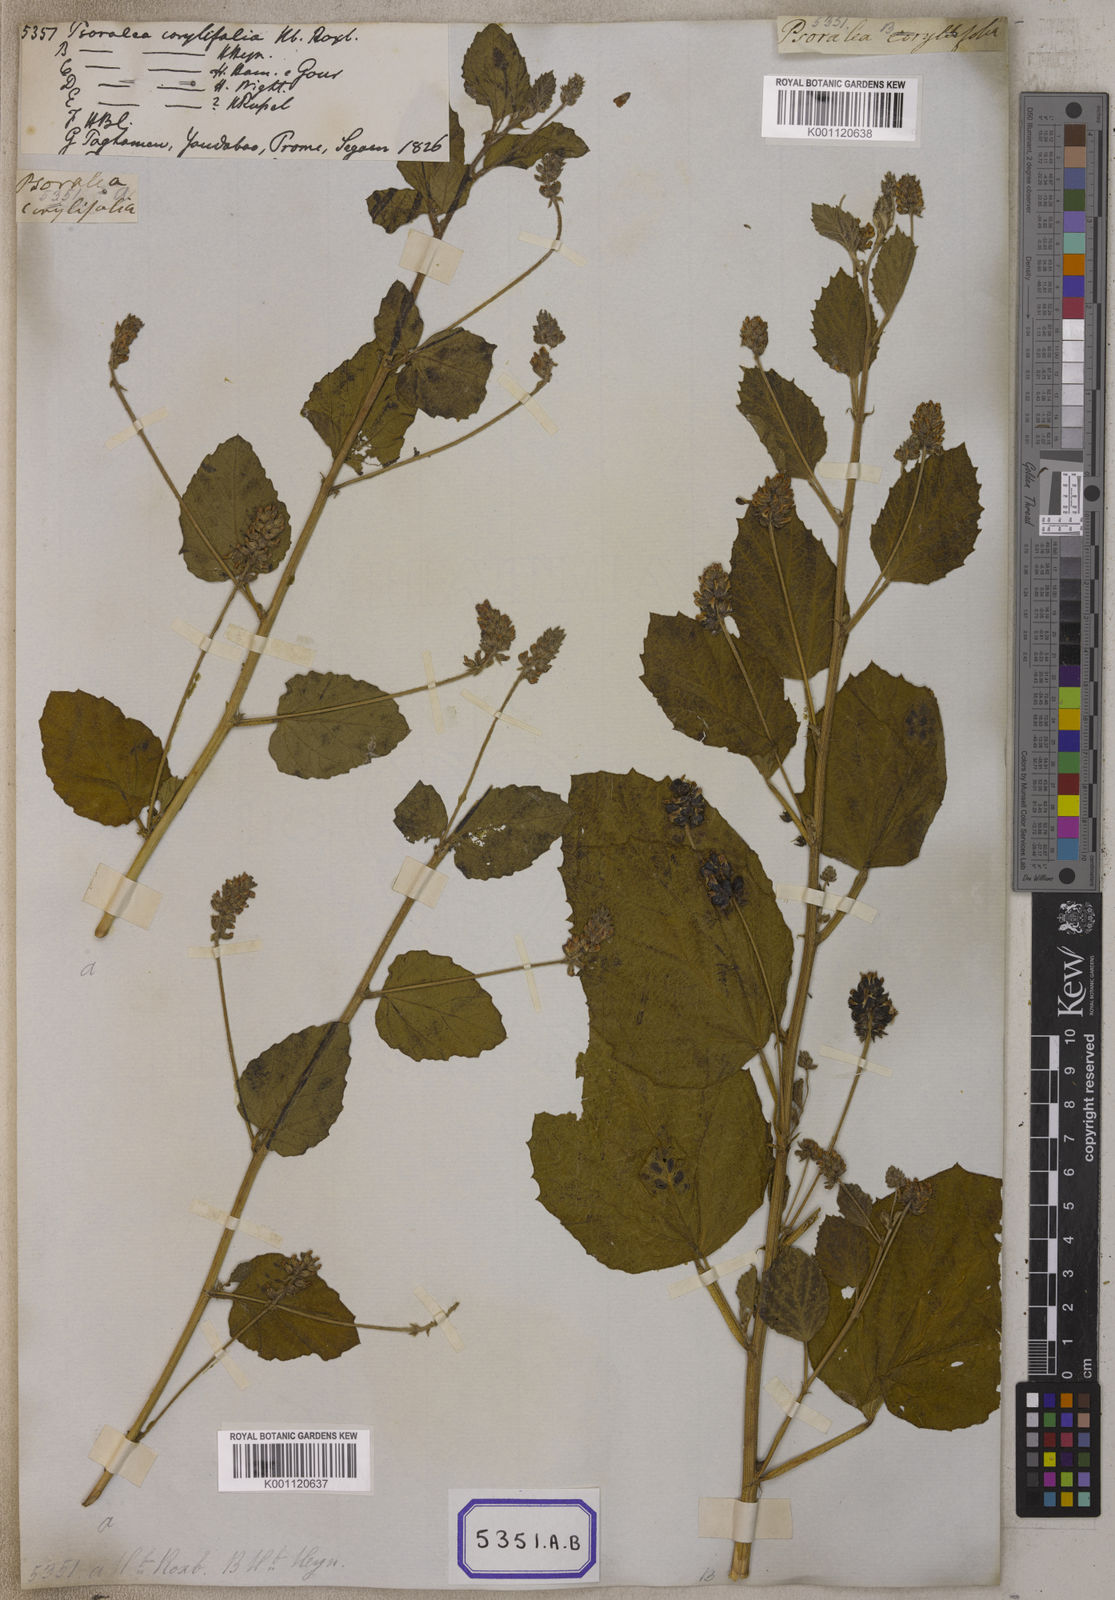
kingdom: Plantae
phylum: Tracheophyta
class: Magnoliopsida
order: Fabales
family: Fabaceae
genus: Cullen
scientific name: Cullen corylifolium
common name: Malaysian scurfpea
